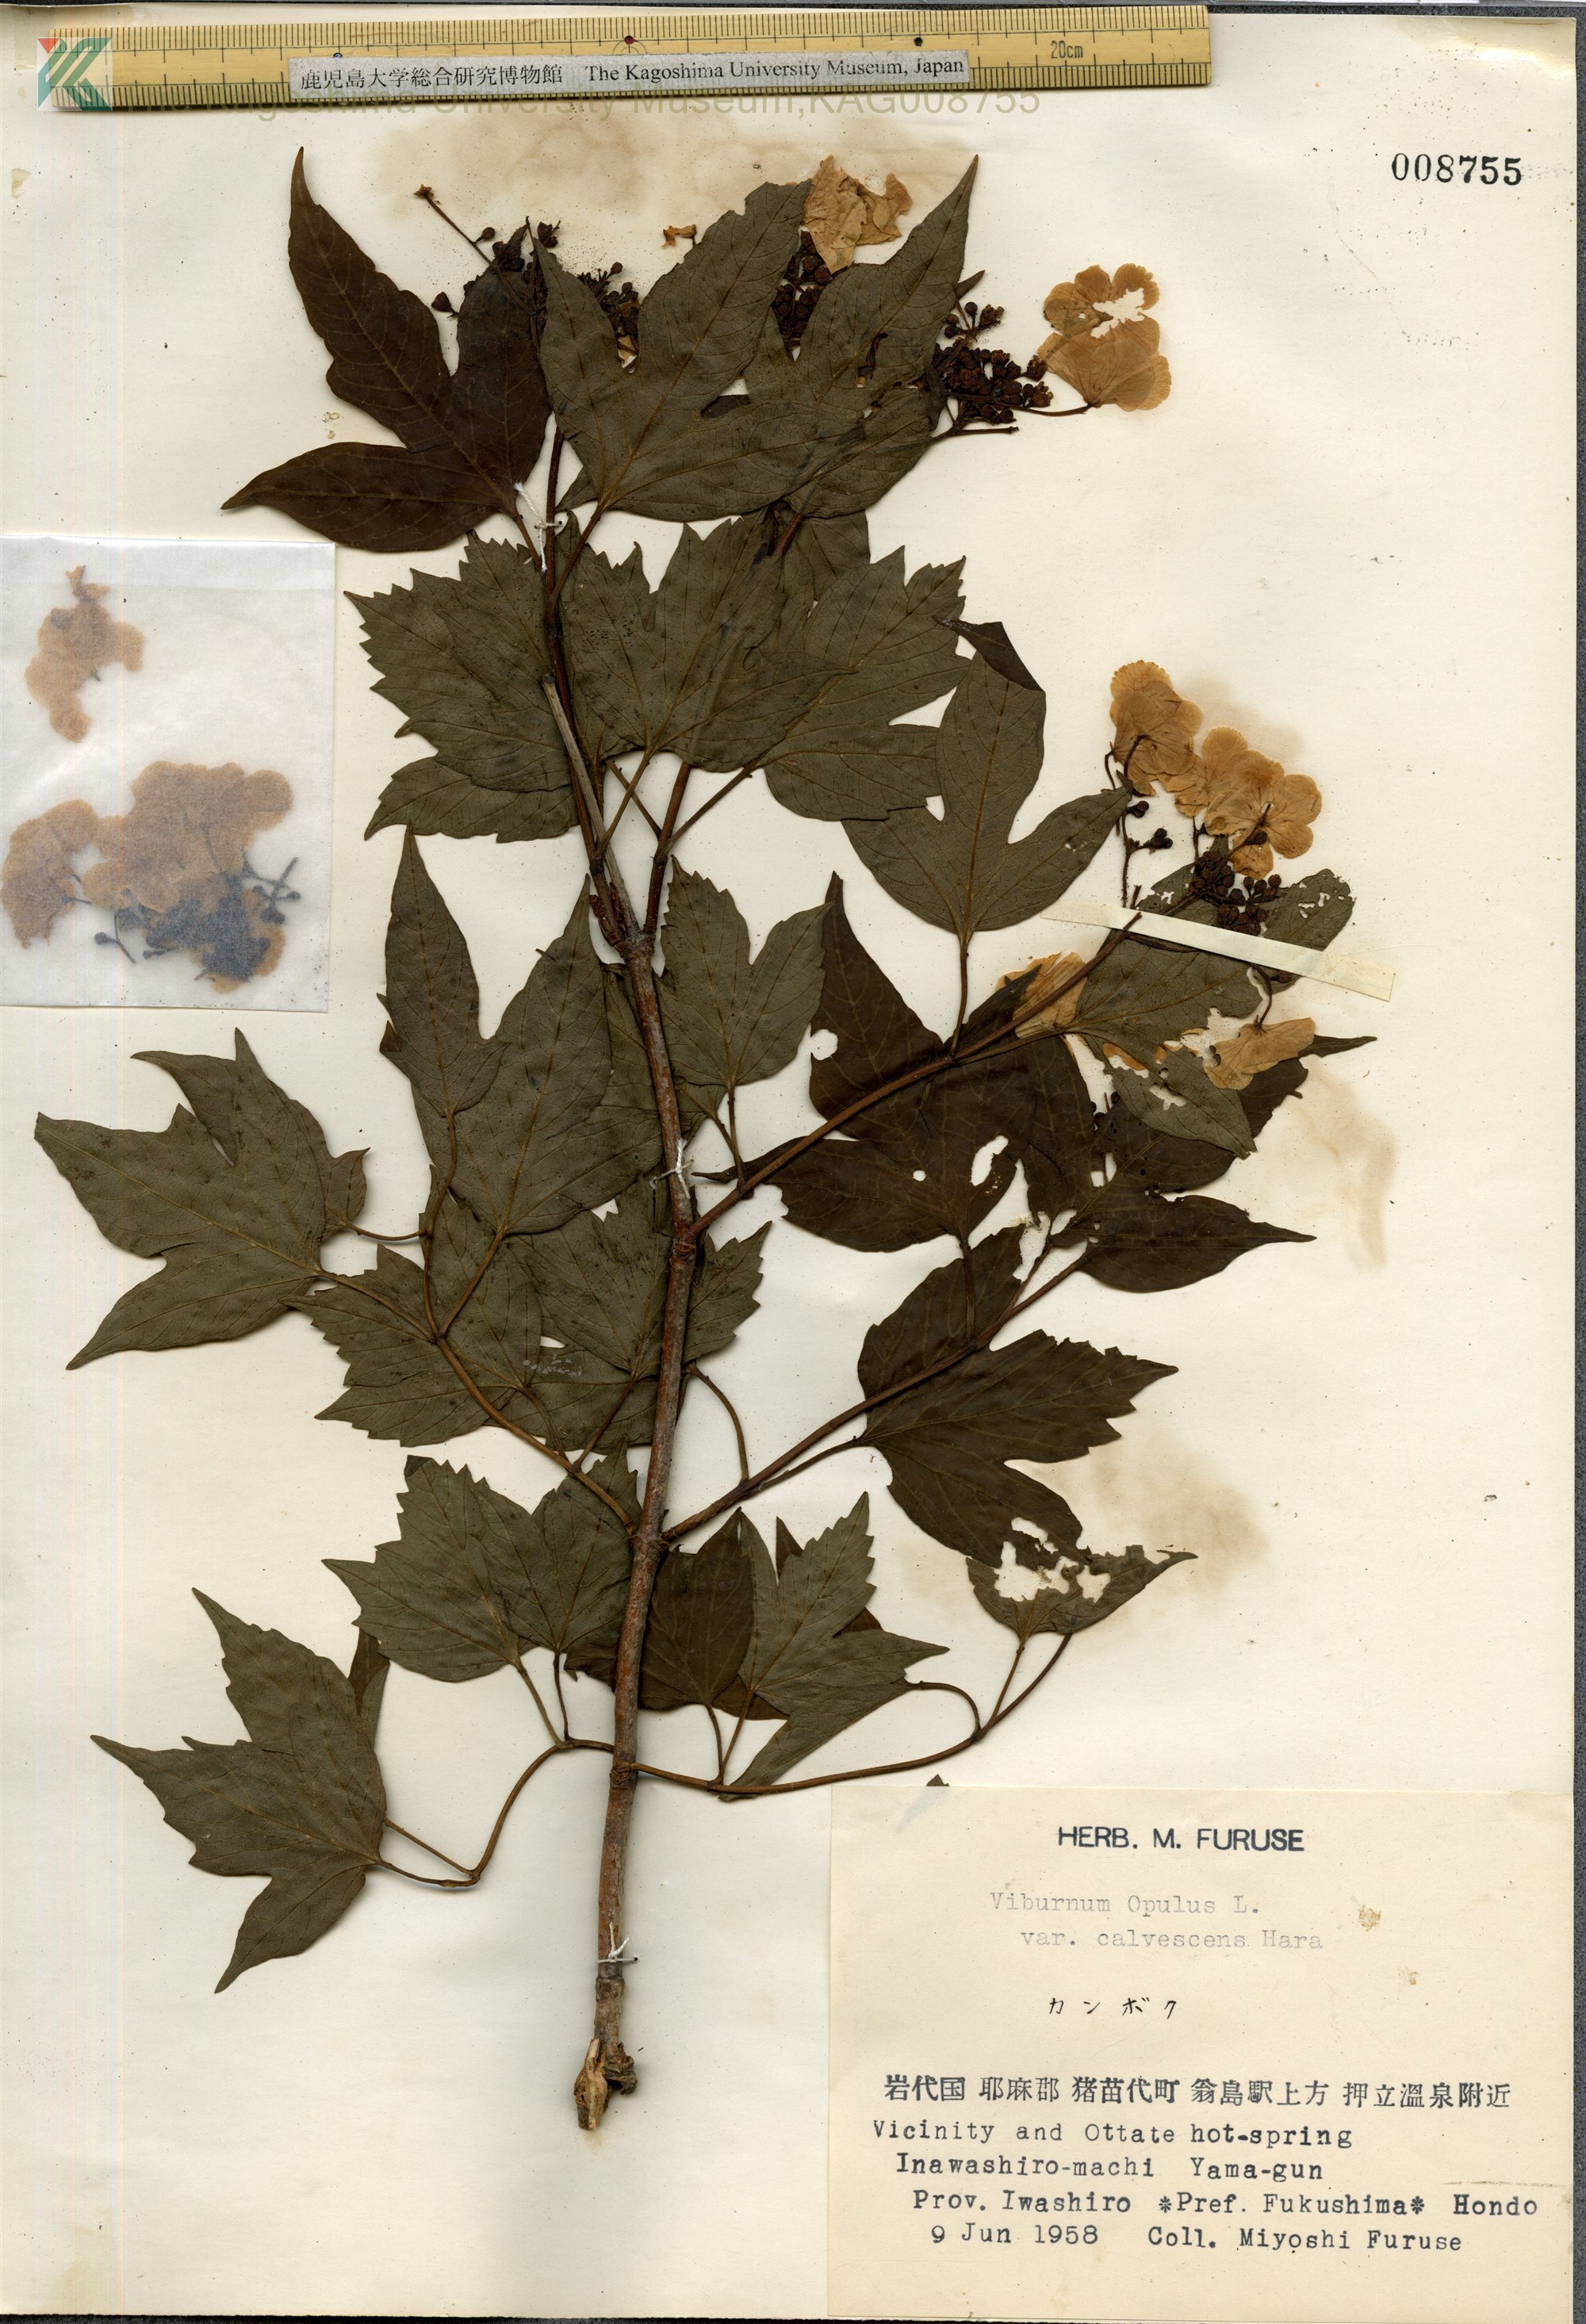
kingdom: Plantae
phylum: Tracheophyta
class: Magnoliopsida
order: Dipsacales
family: Viburnaceae
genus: Viburnum
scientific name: Viburnum opulus
